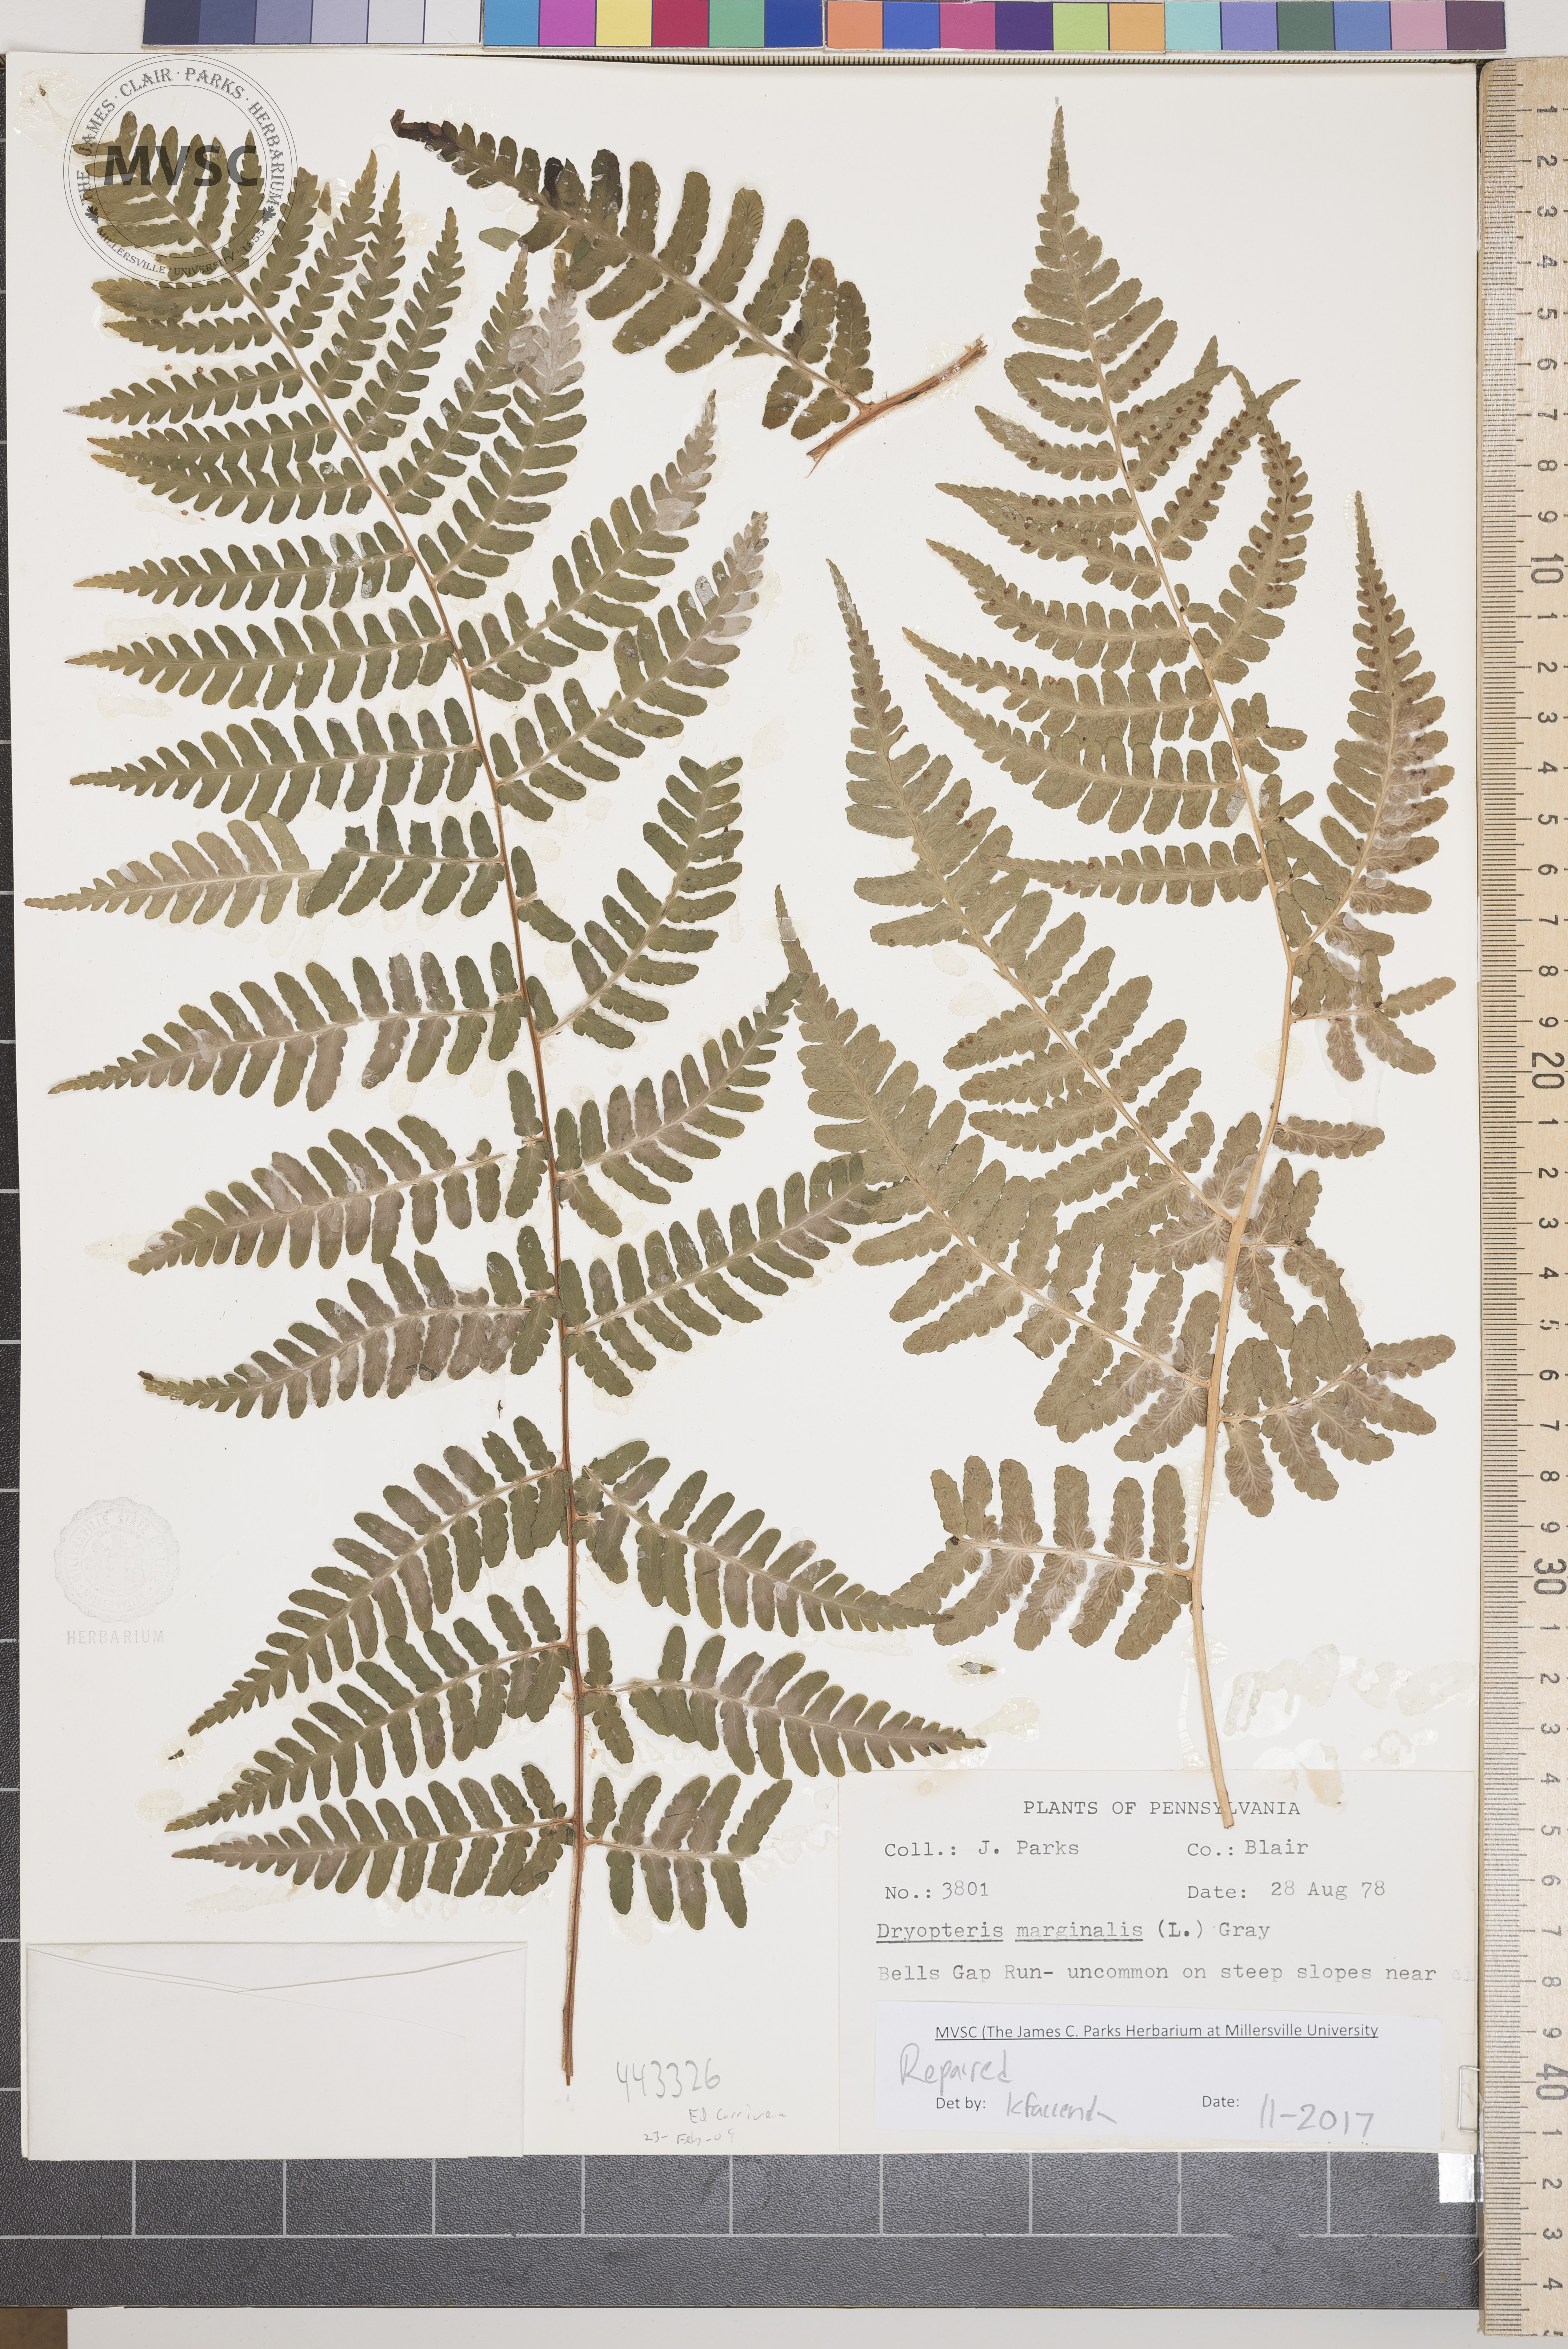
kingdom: Plantae
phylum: Tracheophyta
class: Polypodiopsida
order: Polypodiales
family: Dryopteridaceae
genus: Dryopteris
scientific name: Dryopteris marginalis
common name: Marginal wood fern
